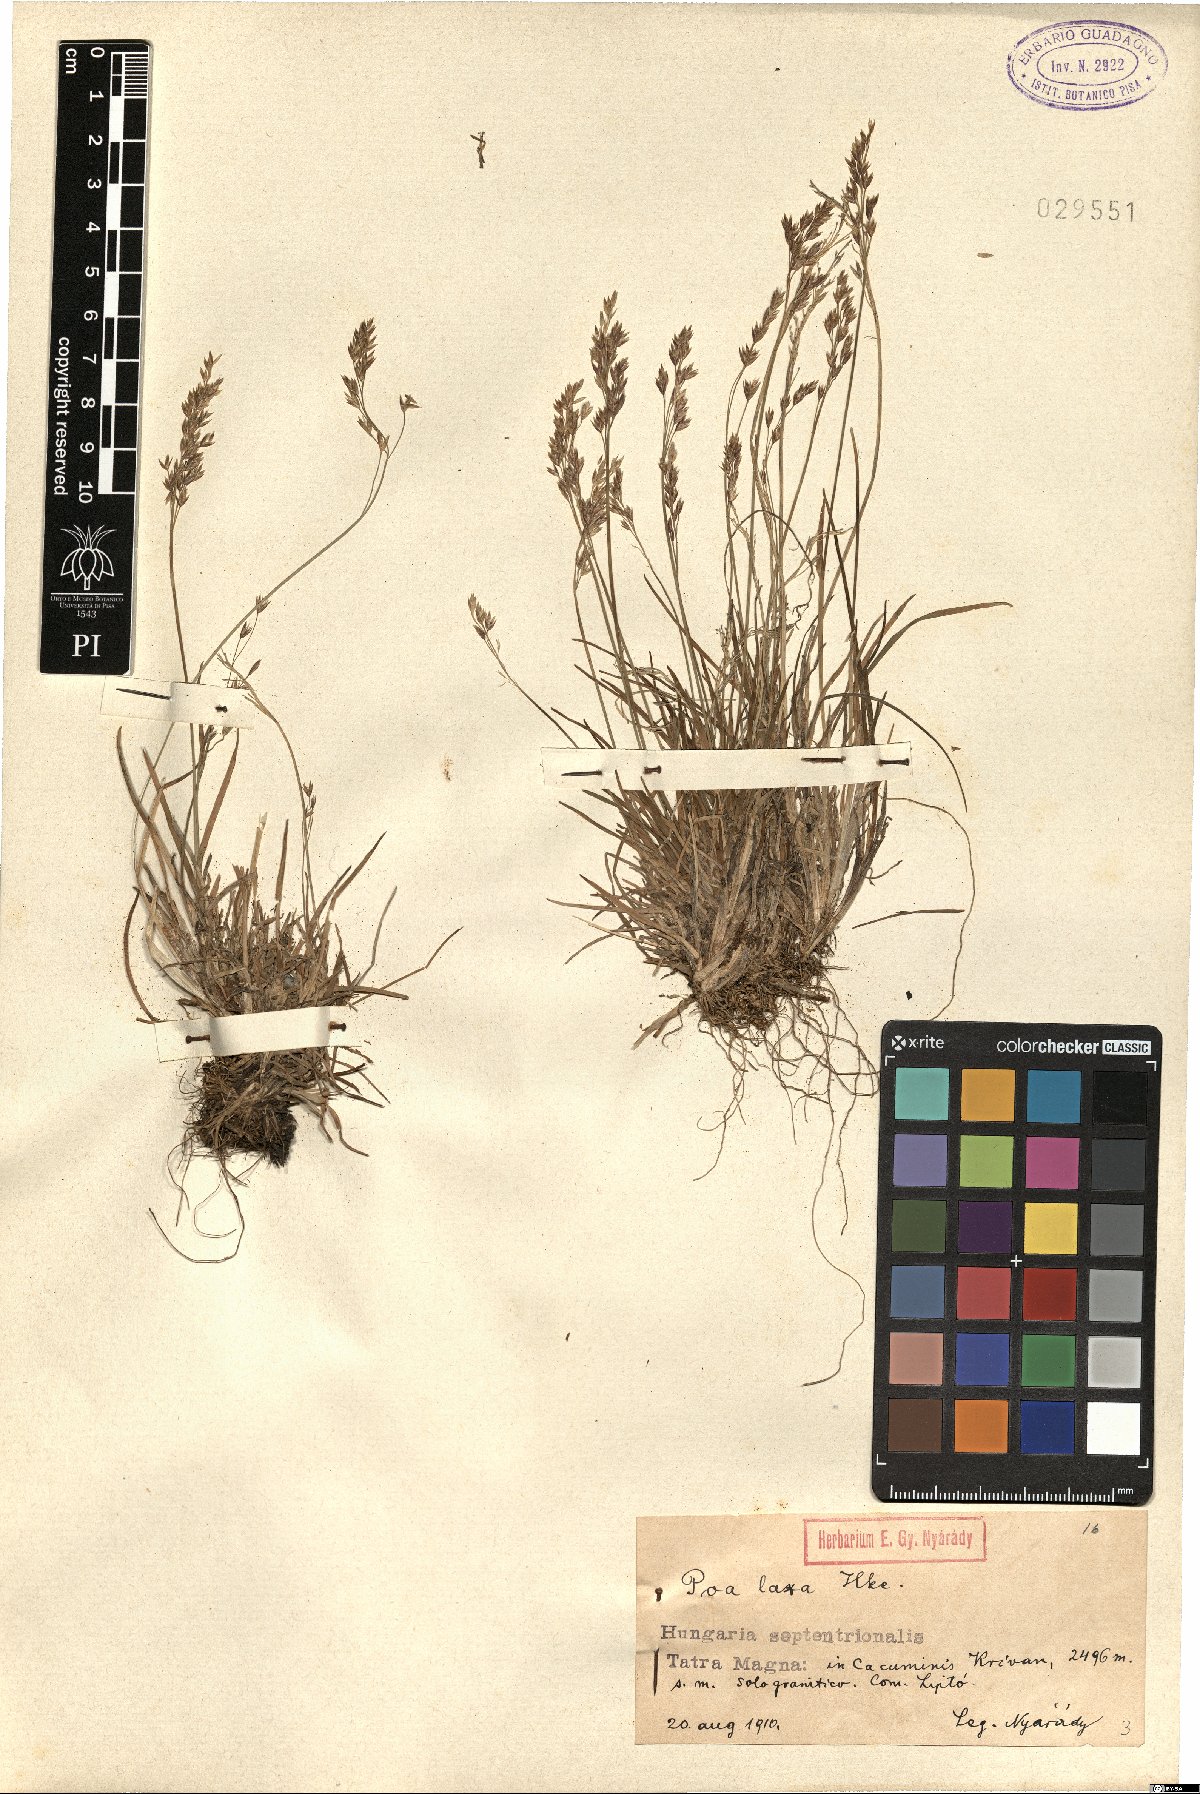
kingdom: Plantae
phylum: Tracheophyta
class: Liliopsida
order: Poales
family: Poaceae
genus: Poa
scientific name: Poa laxa
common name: Lax bluegrass
